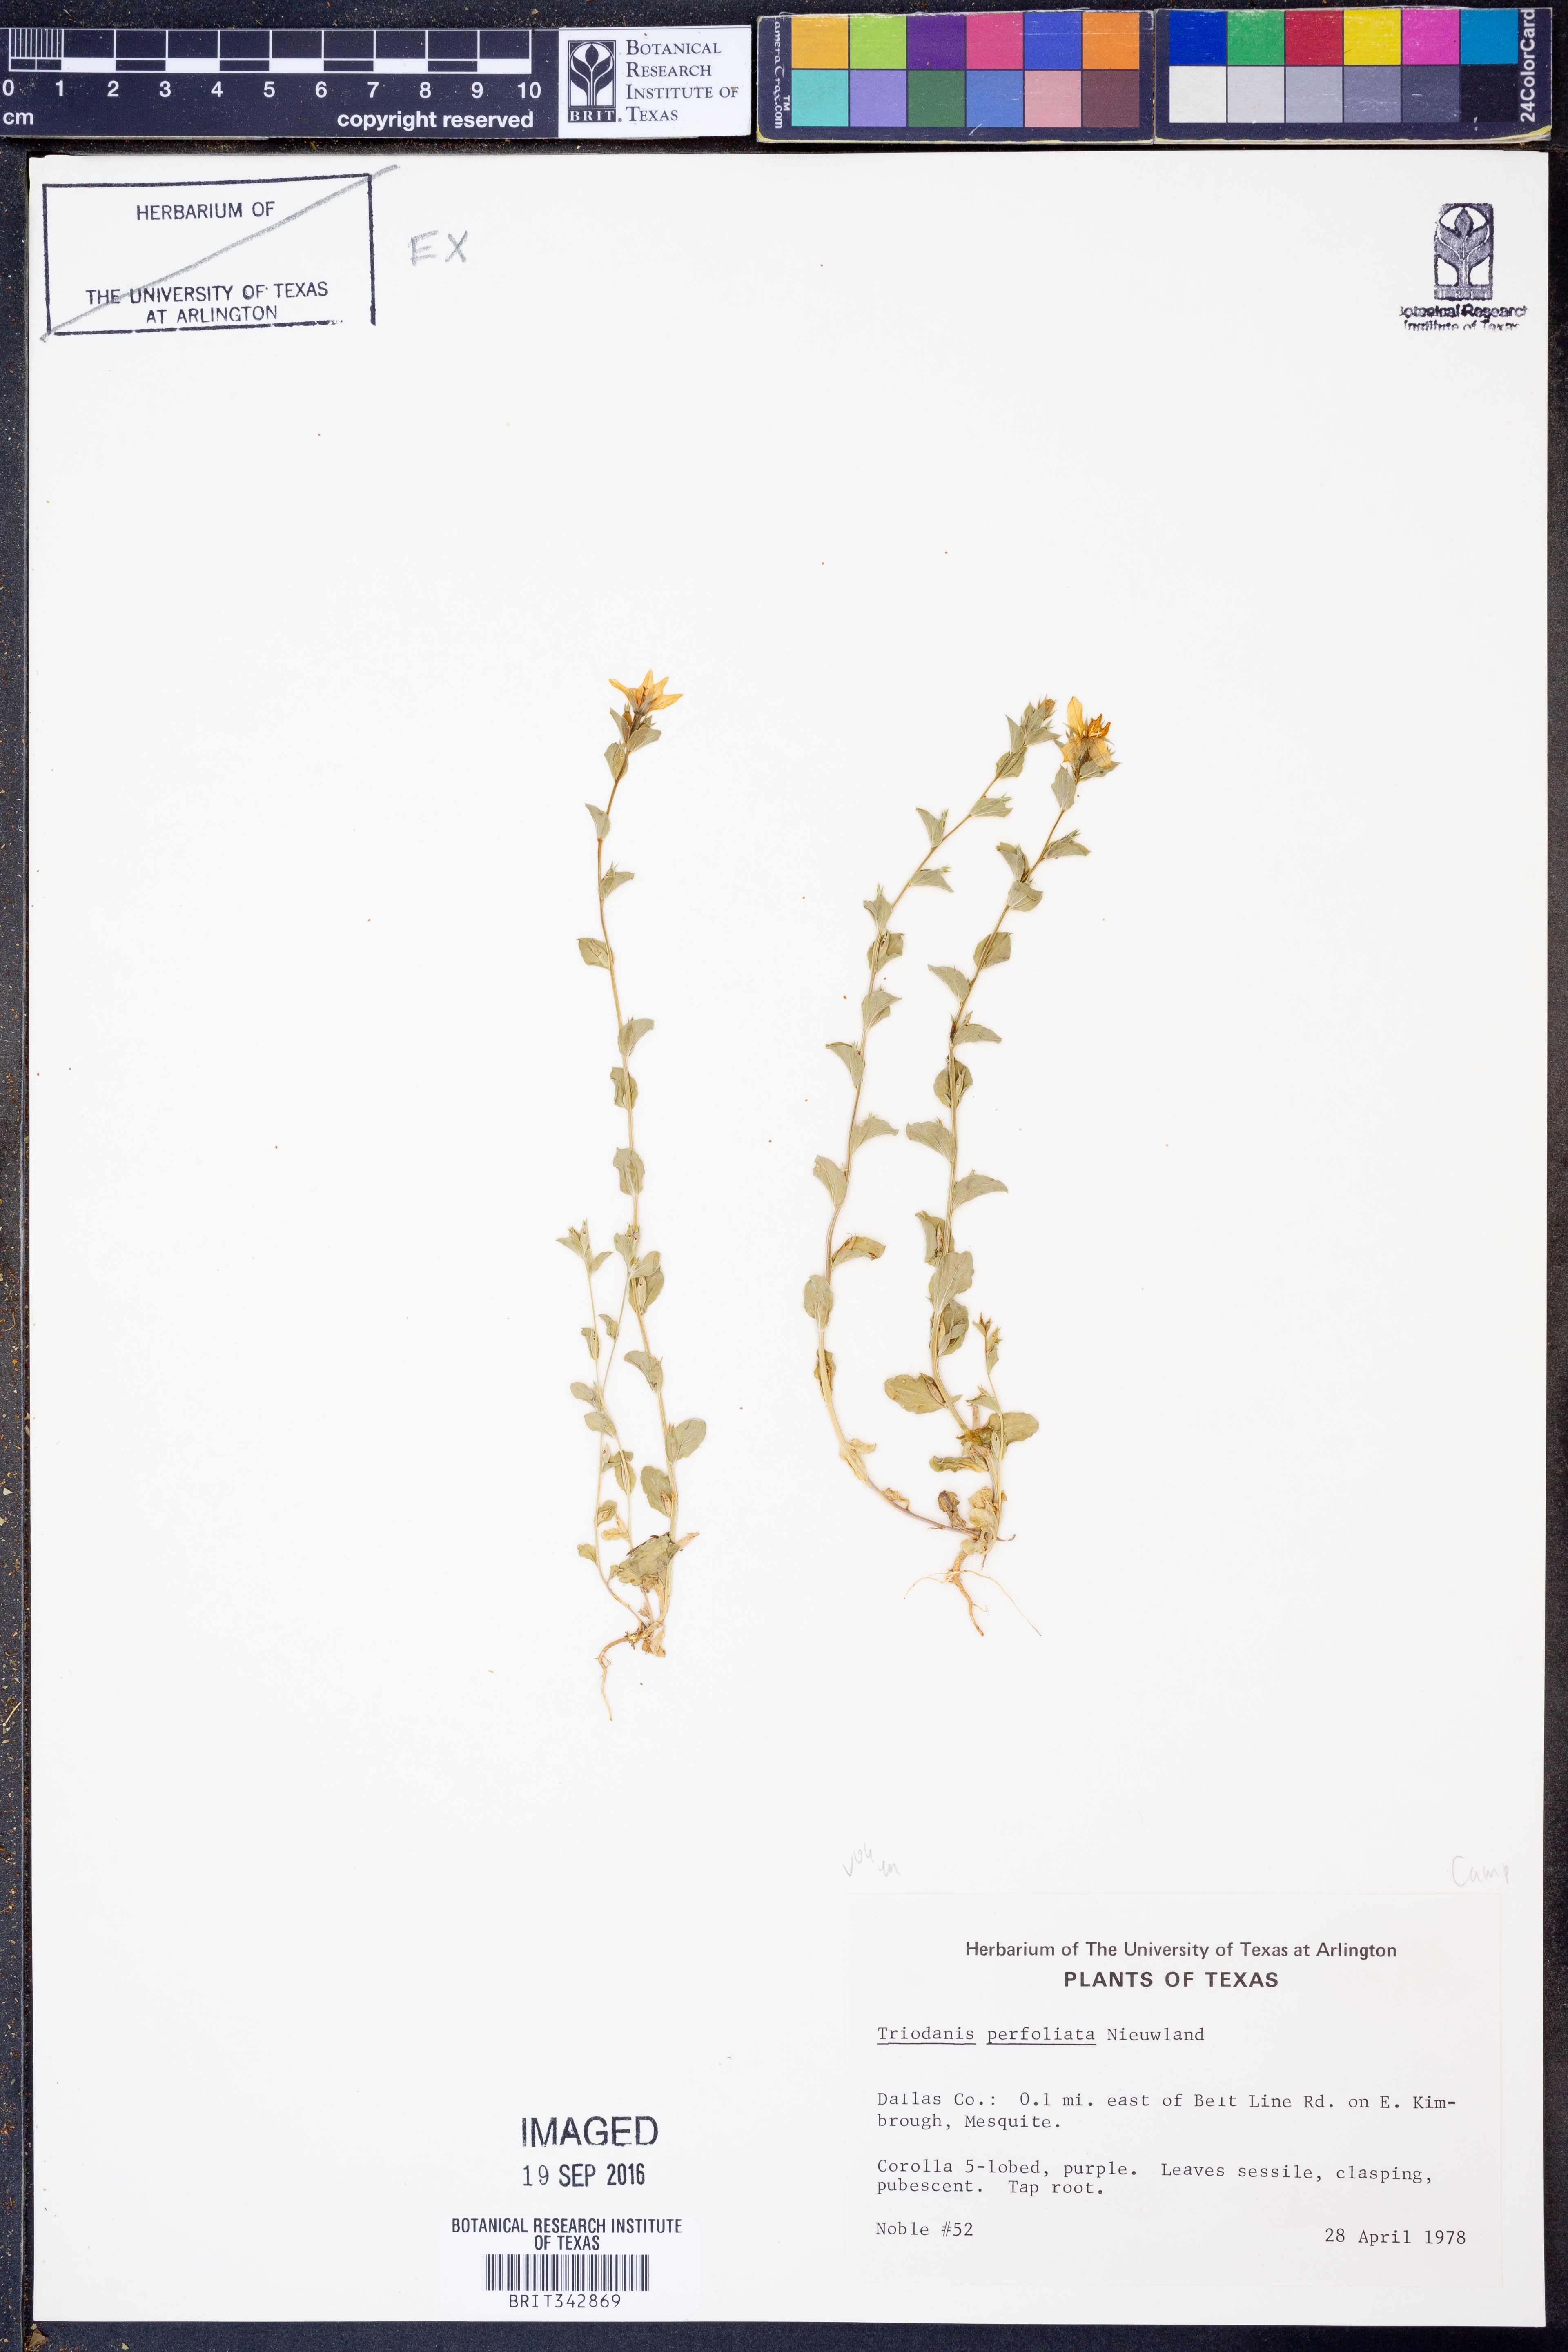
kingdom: Plantae
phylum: Tracheophyta
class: Magnoliopsida
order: Asterales
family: Campanulaceae
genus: Triodanis
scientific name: Triodanis perfoliata
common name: Clasping venus' looking-glass
